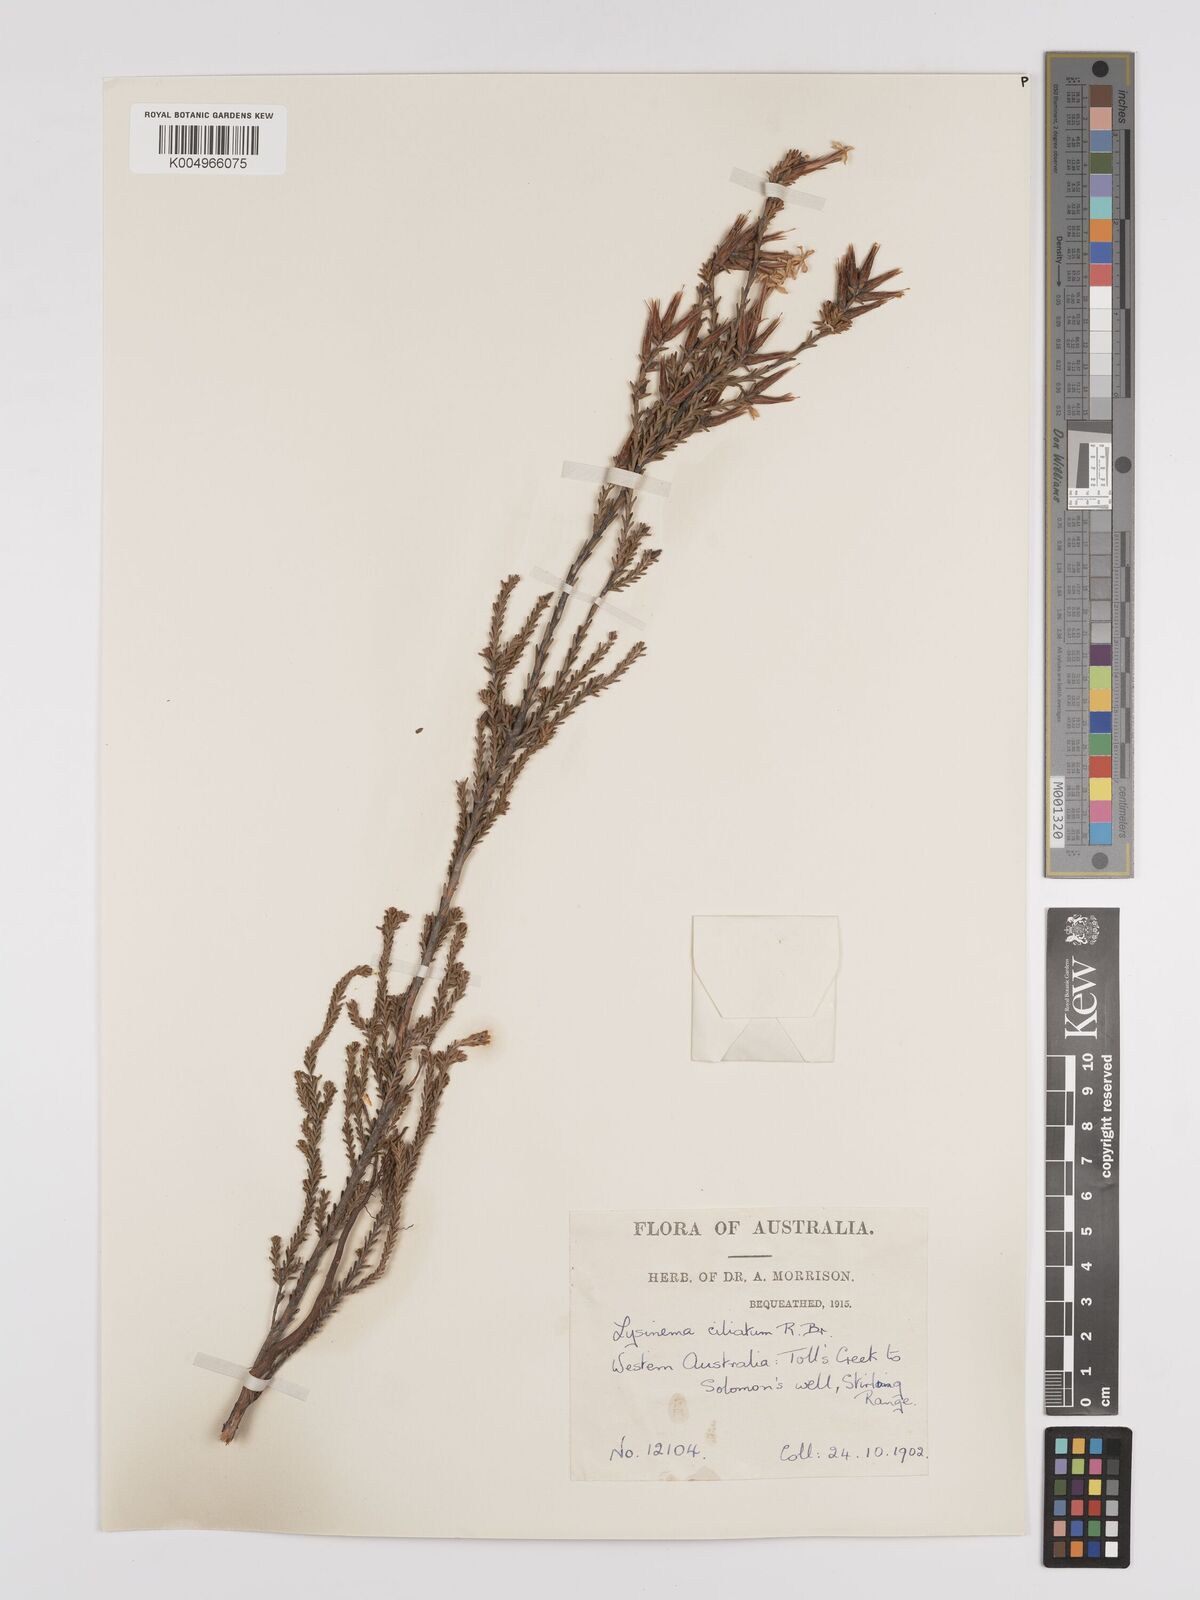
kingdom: Plantae
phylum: Tracheophyta
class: Magnoliopsida
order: Ericales
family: Ericaceae
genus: Lysinema
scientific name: Lysinema ciliatum
